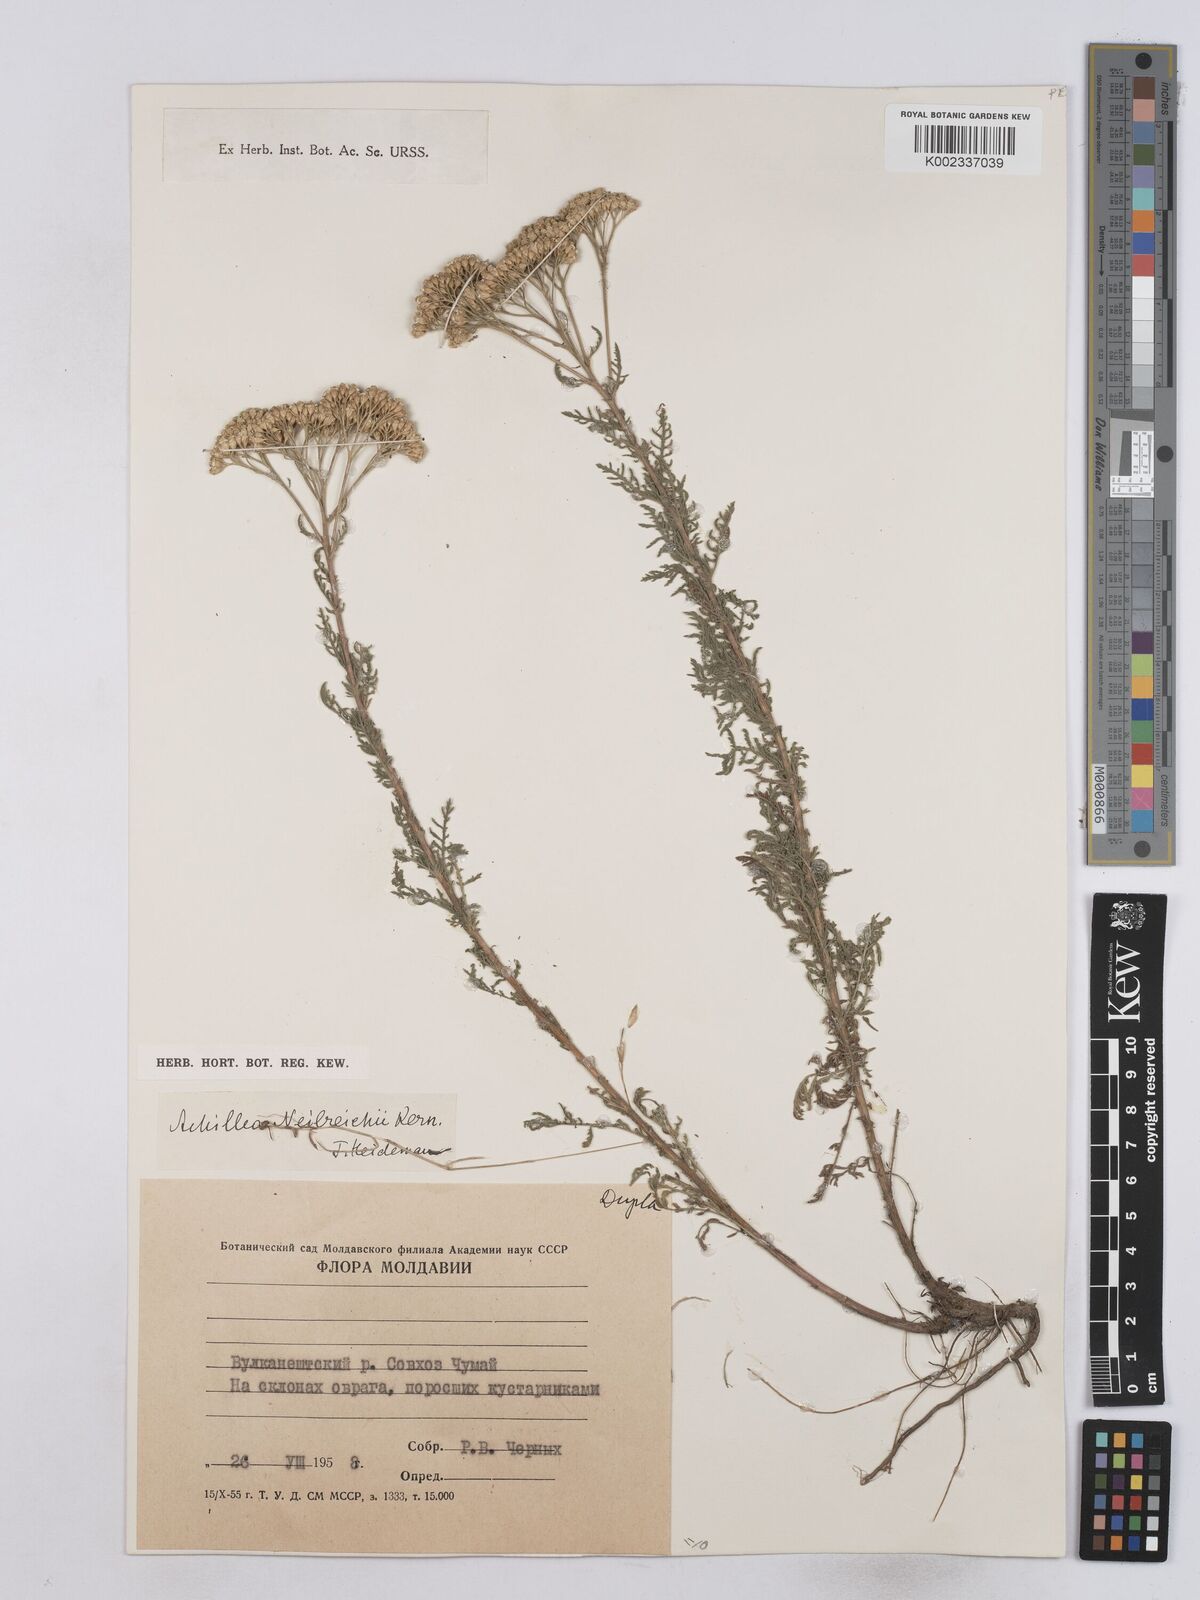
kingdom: Plantae
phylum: Tracheophyta
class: Magnoliopsida
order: Asterales
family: Asteraceae
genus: Achillea
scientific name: Achillea nobilis
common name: Noble yarrow
